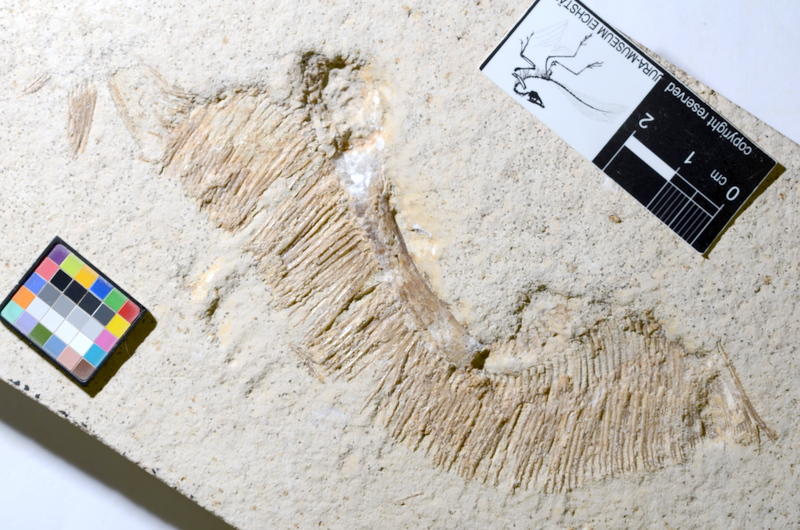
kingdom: Animalia
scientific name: Animalia
